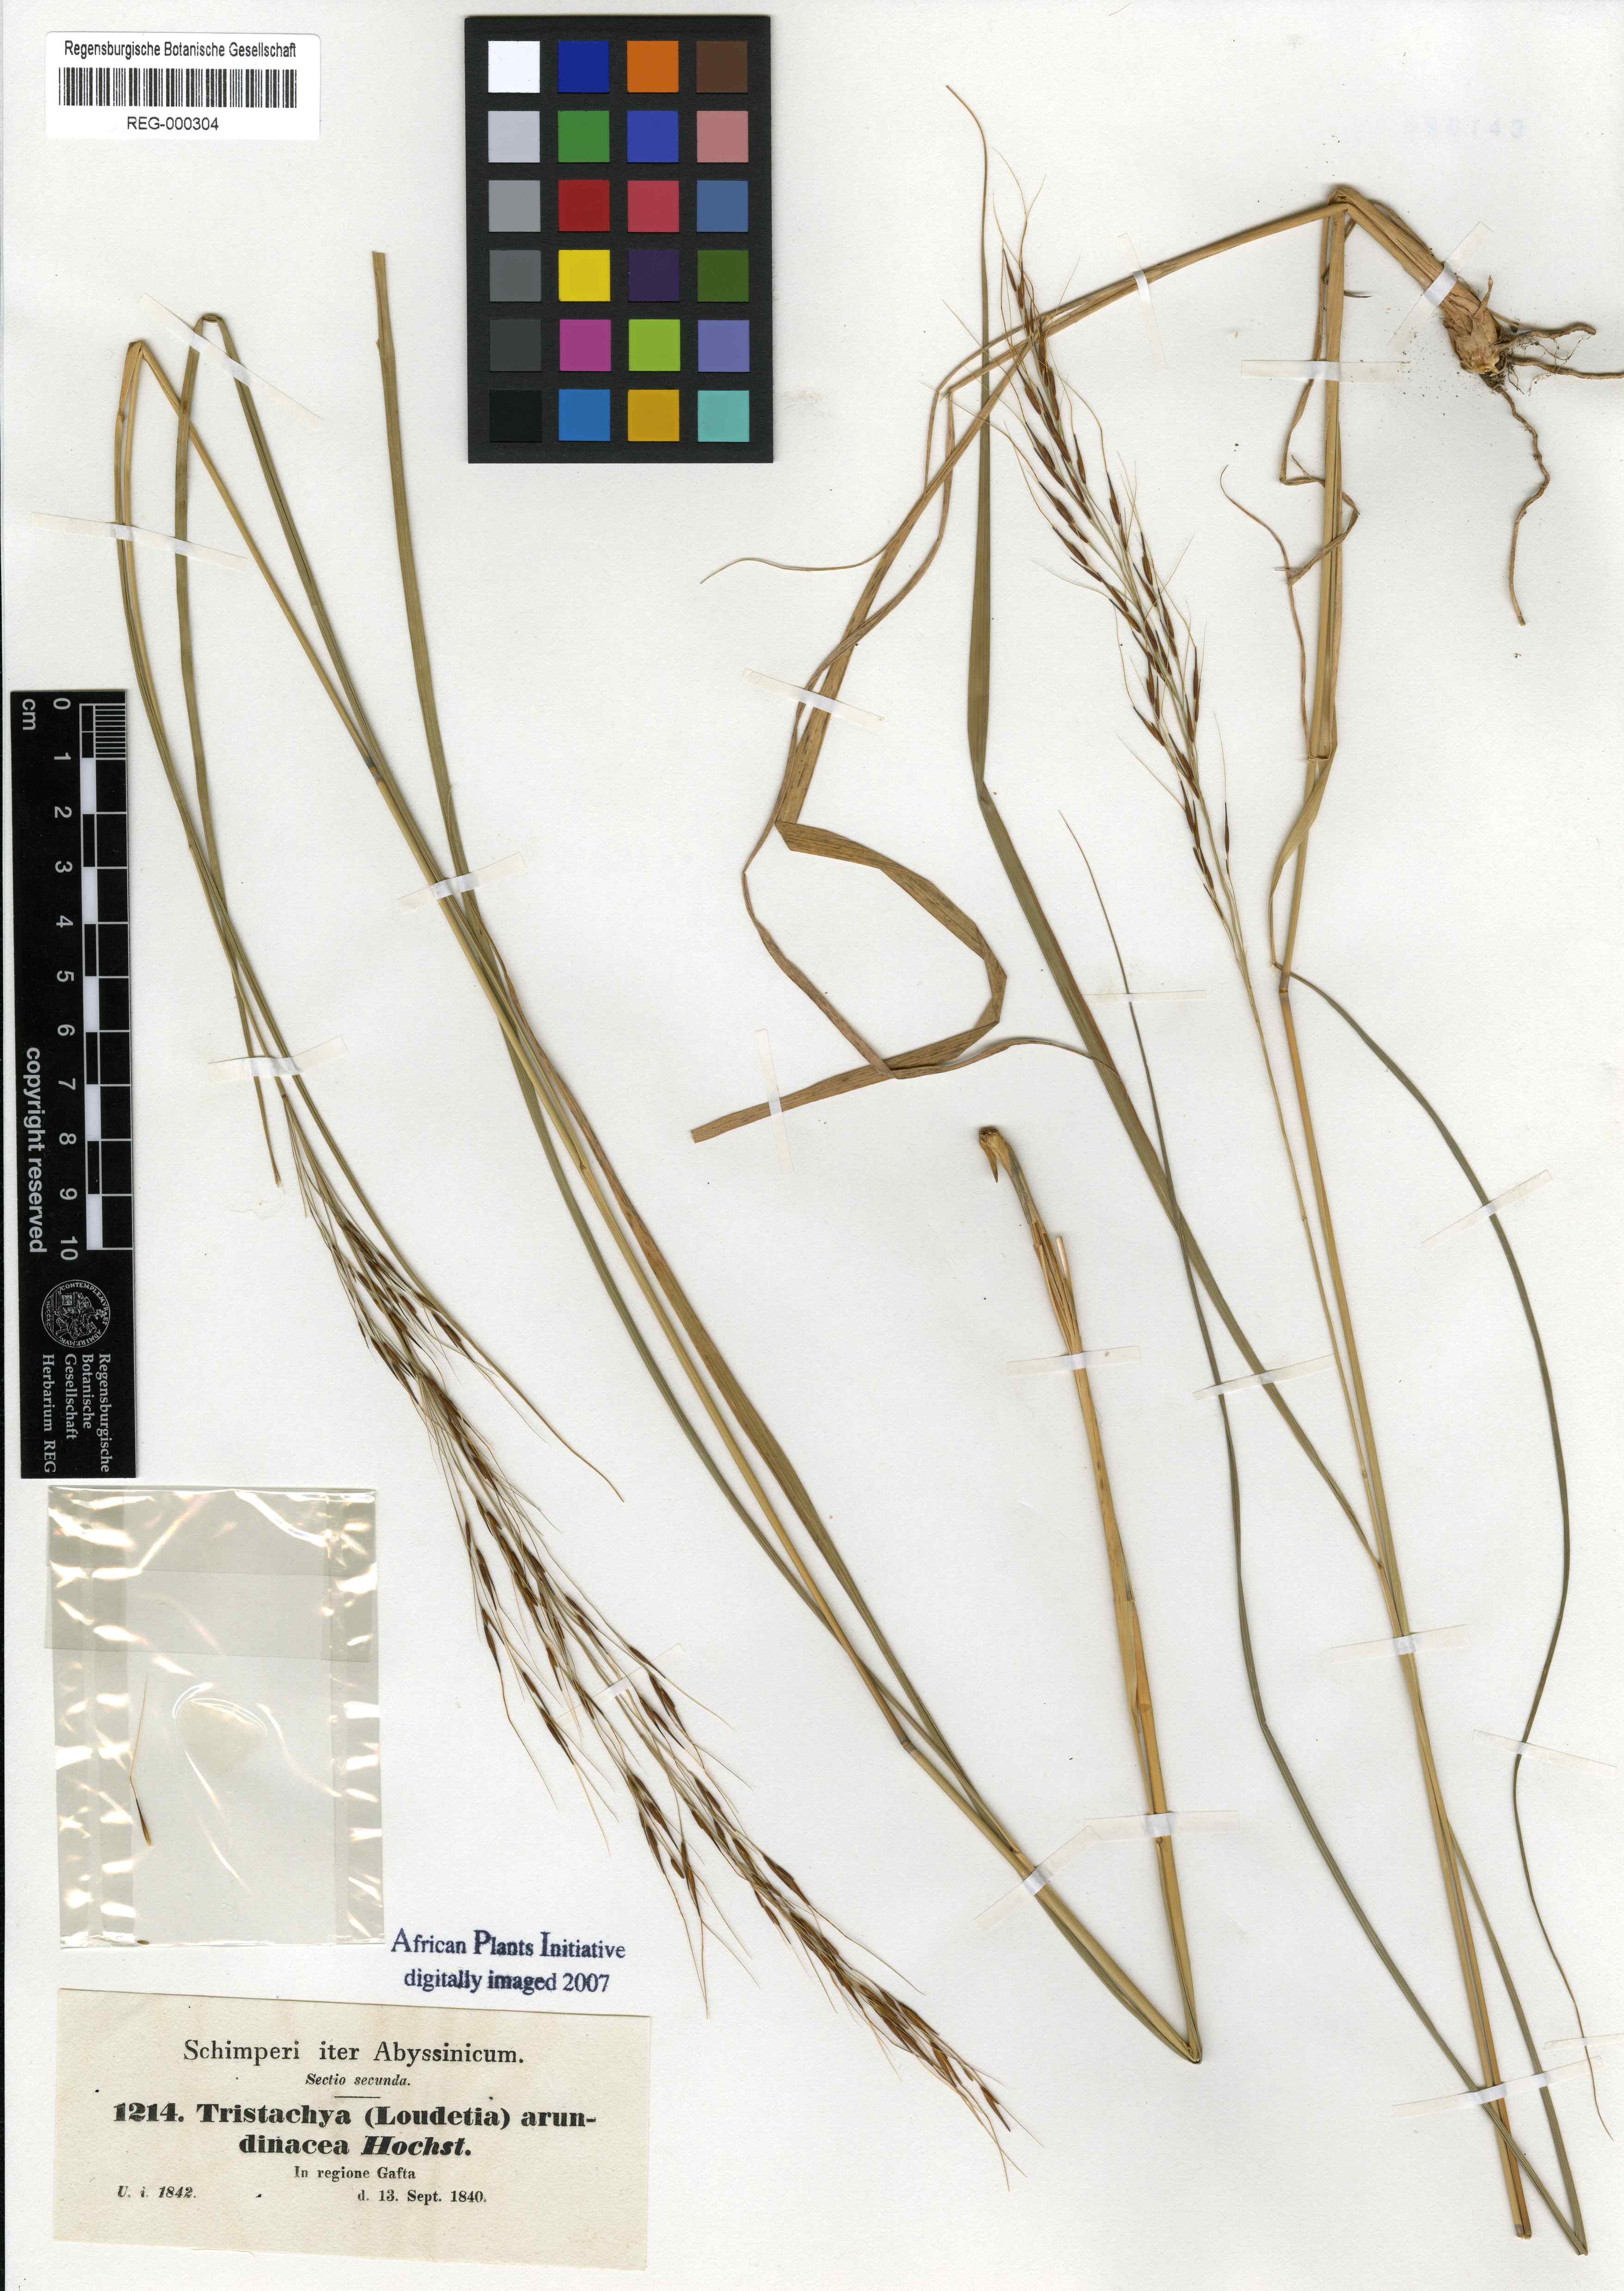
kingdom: Plantae
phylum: Tracheophyta
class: Liliopsida
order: Poales
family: Poaceae
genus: Loudetia
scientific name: Loudetia arundinacea
